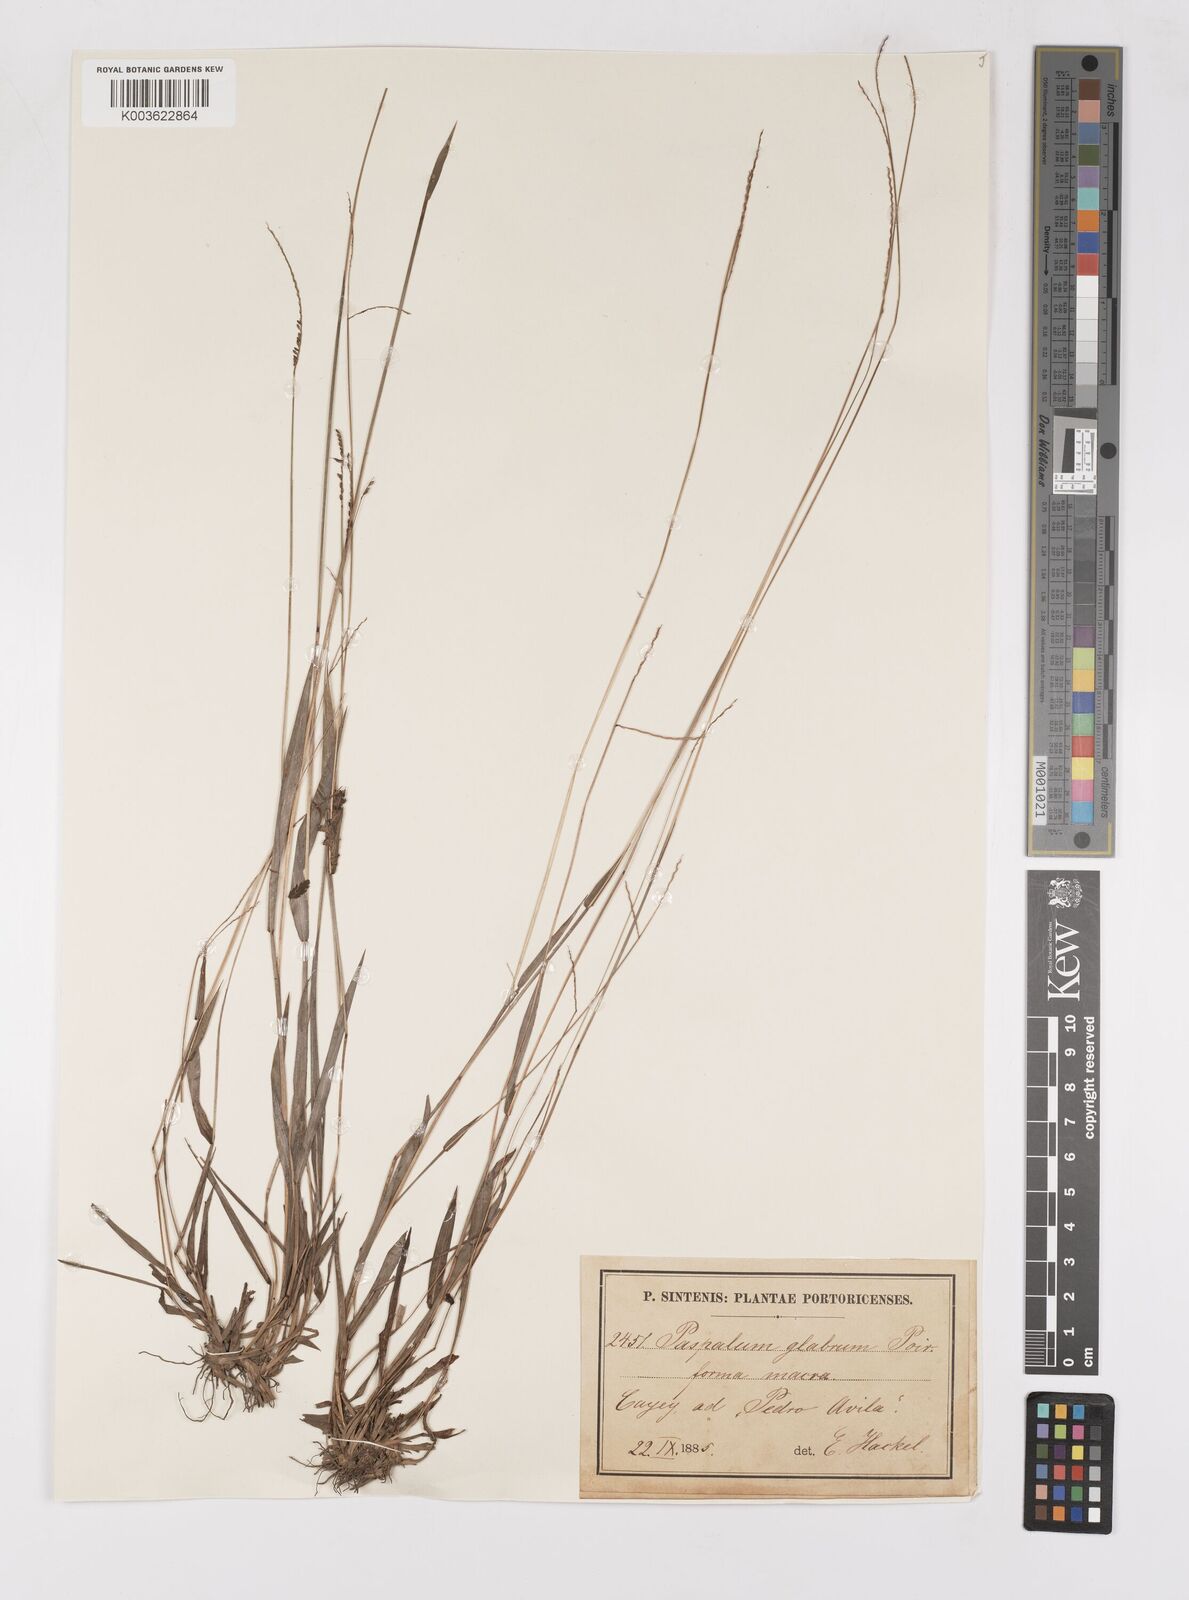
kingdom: Plantae
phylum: Tracheophyta
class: Liliopsida
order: Poales
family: Poaceae
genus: Paspalum
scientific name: Paspalum laxum
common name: Coconut paspalum
